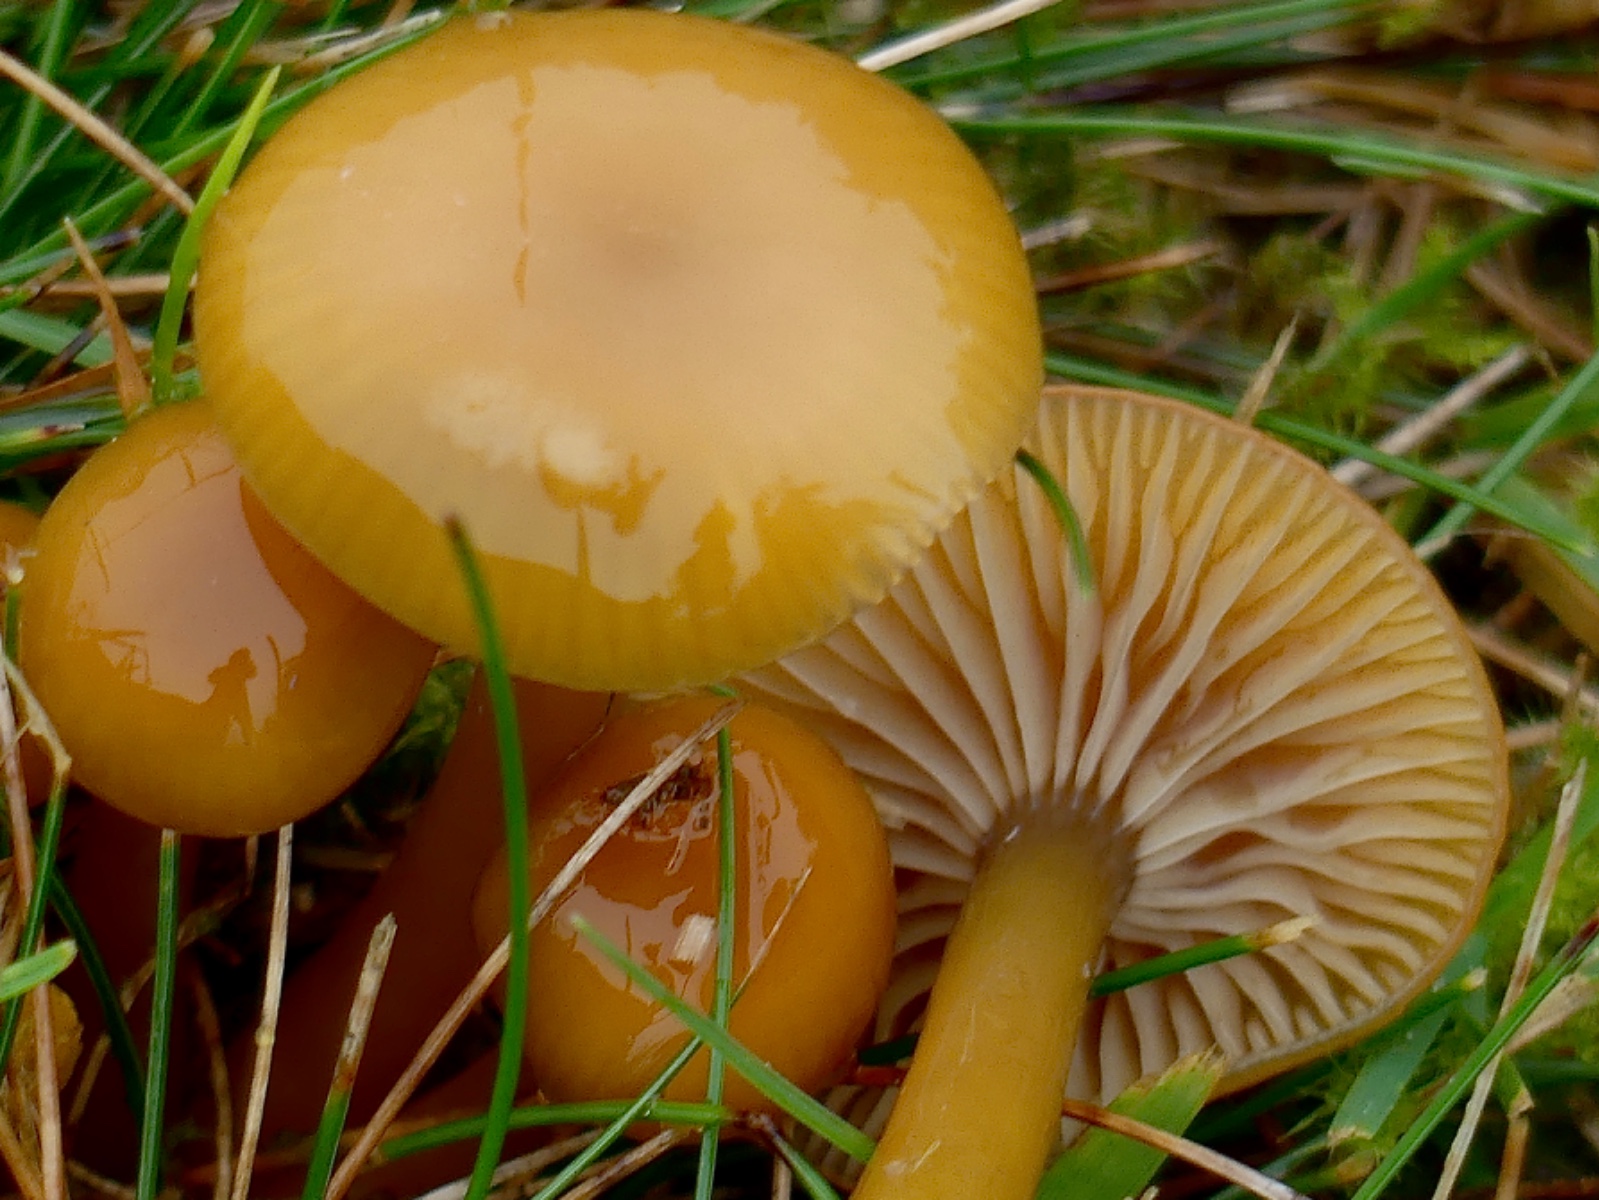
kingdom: Fungi
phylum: Basidiomycota
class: Agaricomycetes
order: Agaricales
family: Hygrophoraceae
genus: Gliophorus
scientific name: Gliophorus laetus
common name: brusk-vokshat
